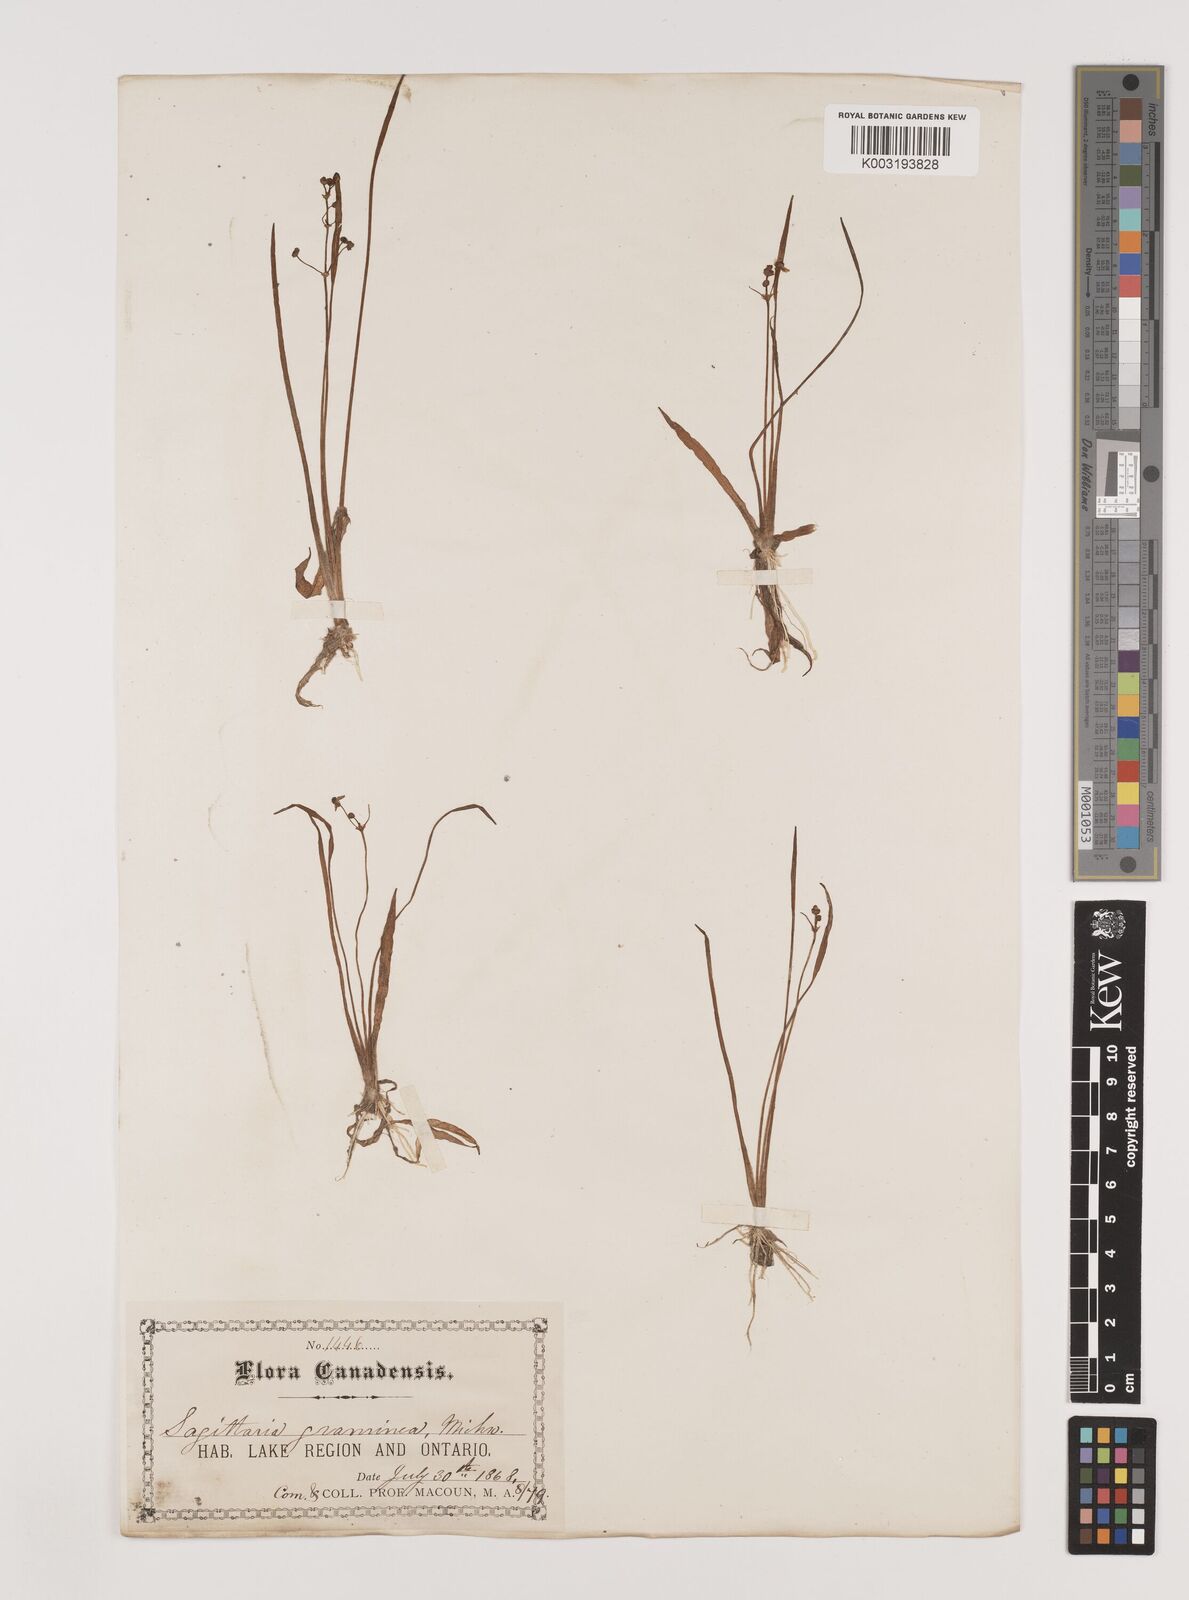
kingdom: Plantae
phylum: Tracheophyta
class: Liliopsida
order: Alismatales
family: Alismataceae
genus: Sagittaria
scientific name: Sagittaria graminea
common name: Grass-leaved arrowhead
